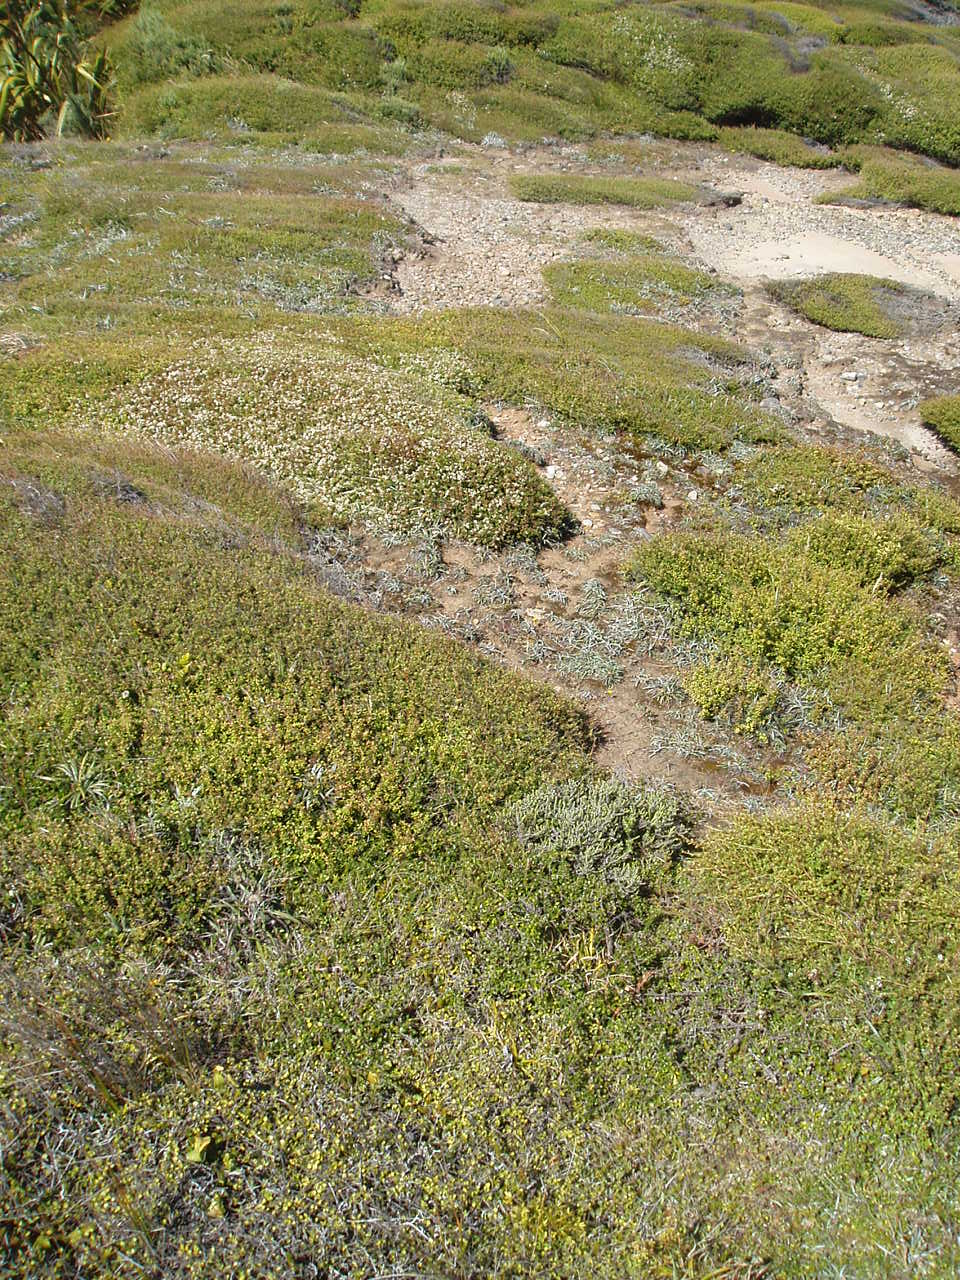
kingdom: Plantae
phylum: Tracheophyta
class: Magnoliopsida
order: Malvales
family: Thymelaeaceae
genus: Pimelea
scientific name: Pimelea urvilleana
